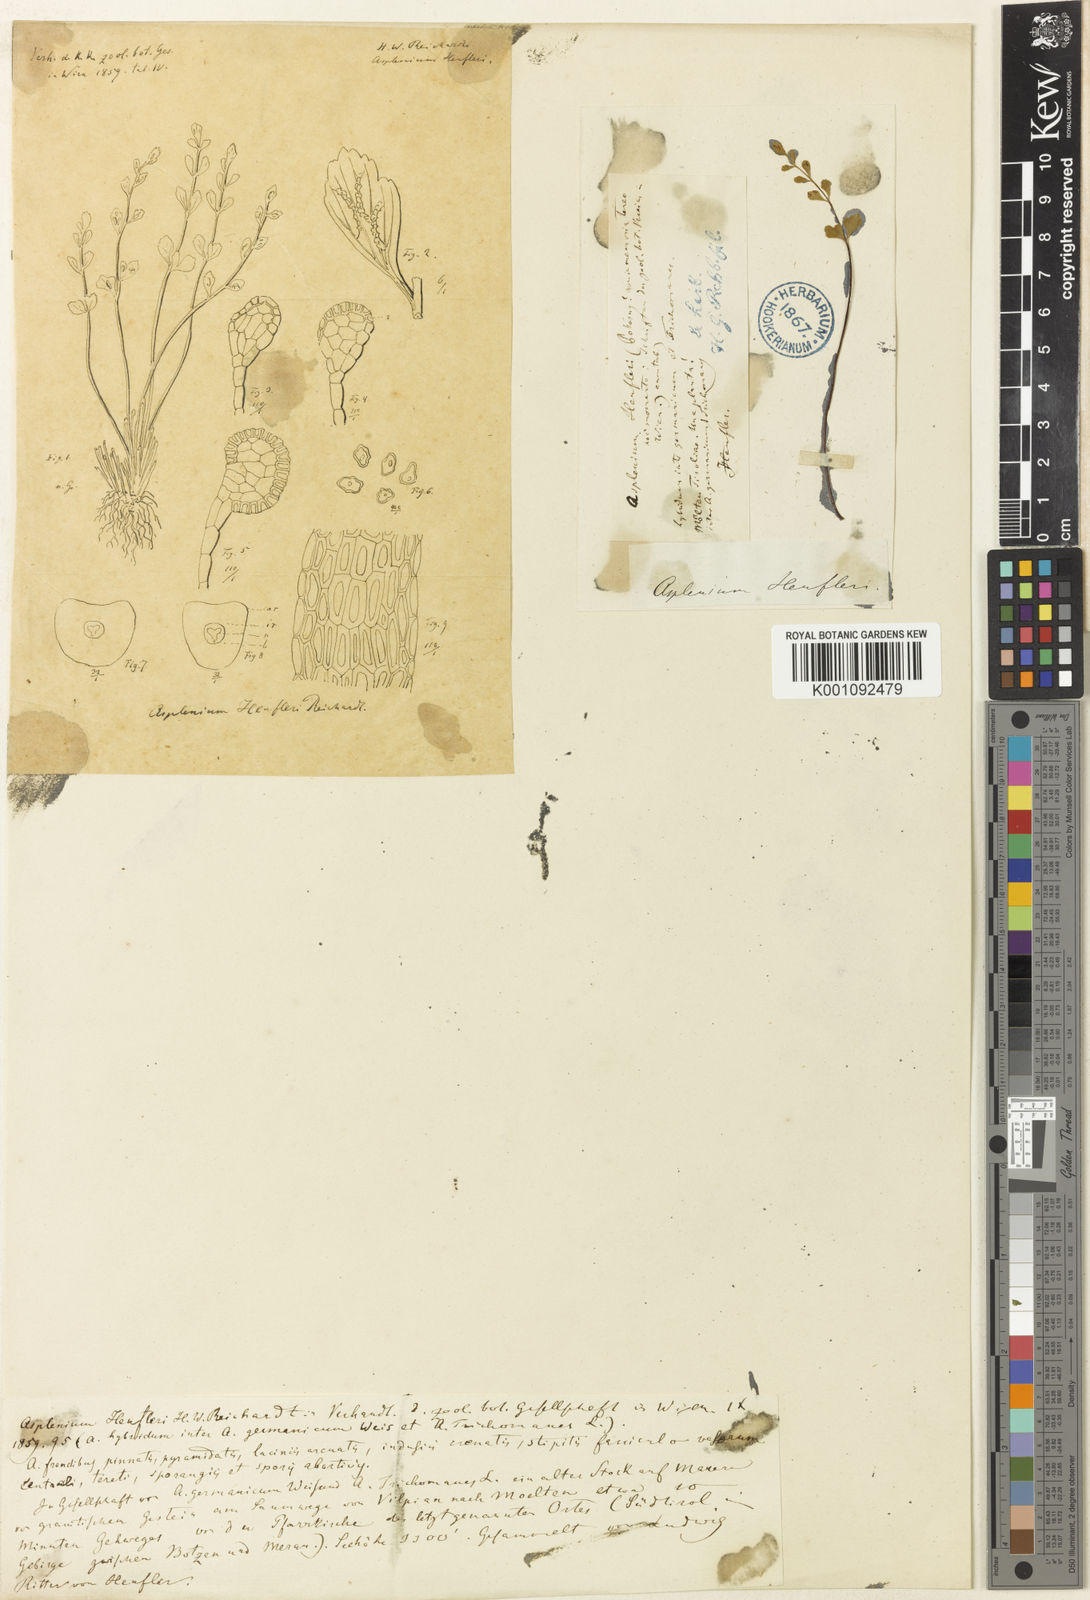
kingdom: Plantae
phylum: Tracheophyta
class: Polypodiopsida
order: Polypodiales
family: Aspleniaceae
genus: Asplenium
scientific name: Asplenium
